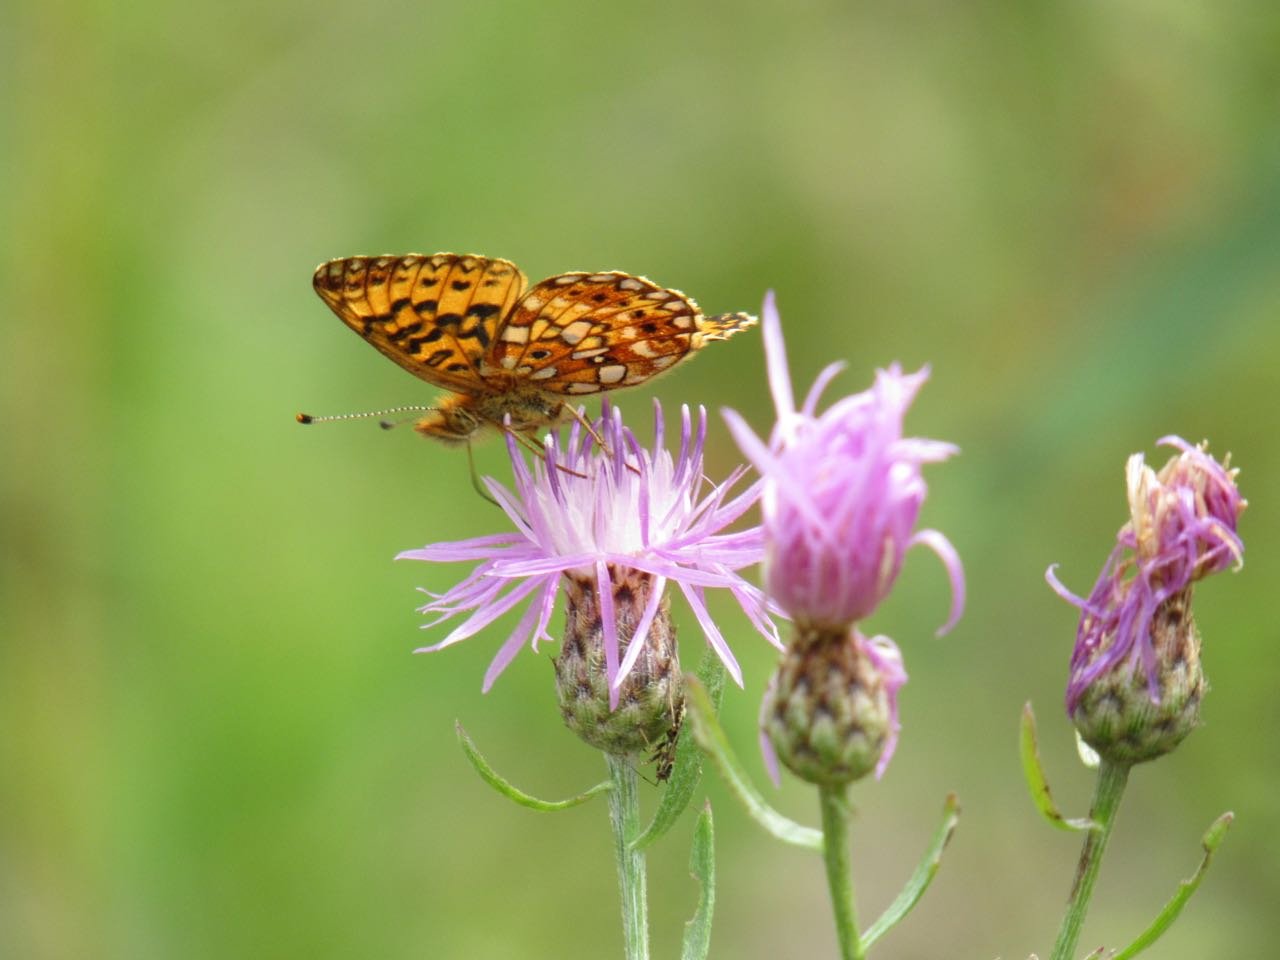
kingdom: Animalia
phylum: Arthropoda
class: Insecta
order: Lepidoptera
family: Nymphalidae
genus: Boloria
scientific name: Boloria selene
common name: Silver-bordered Fritillary
